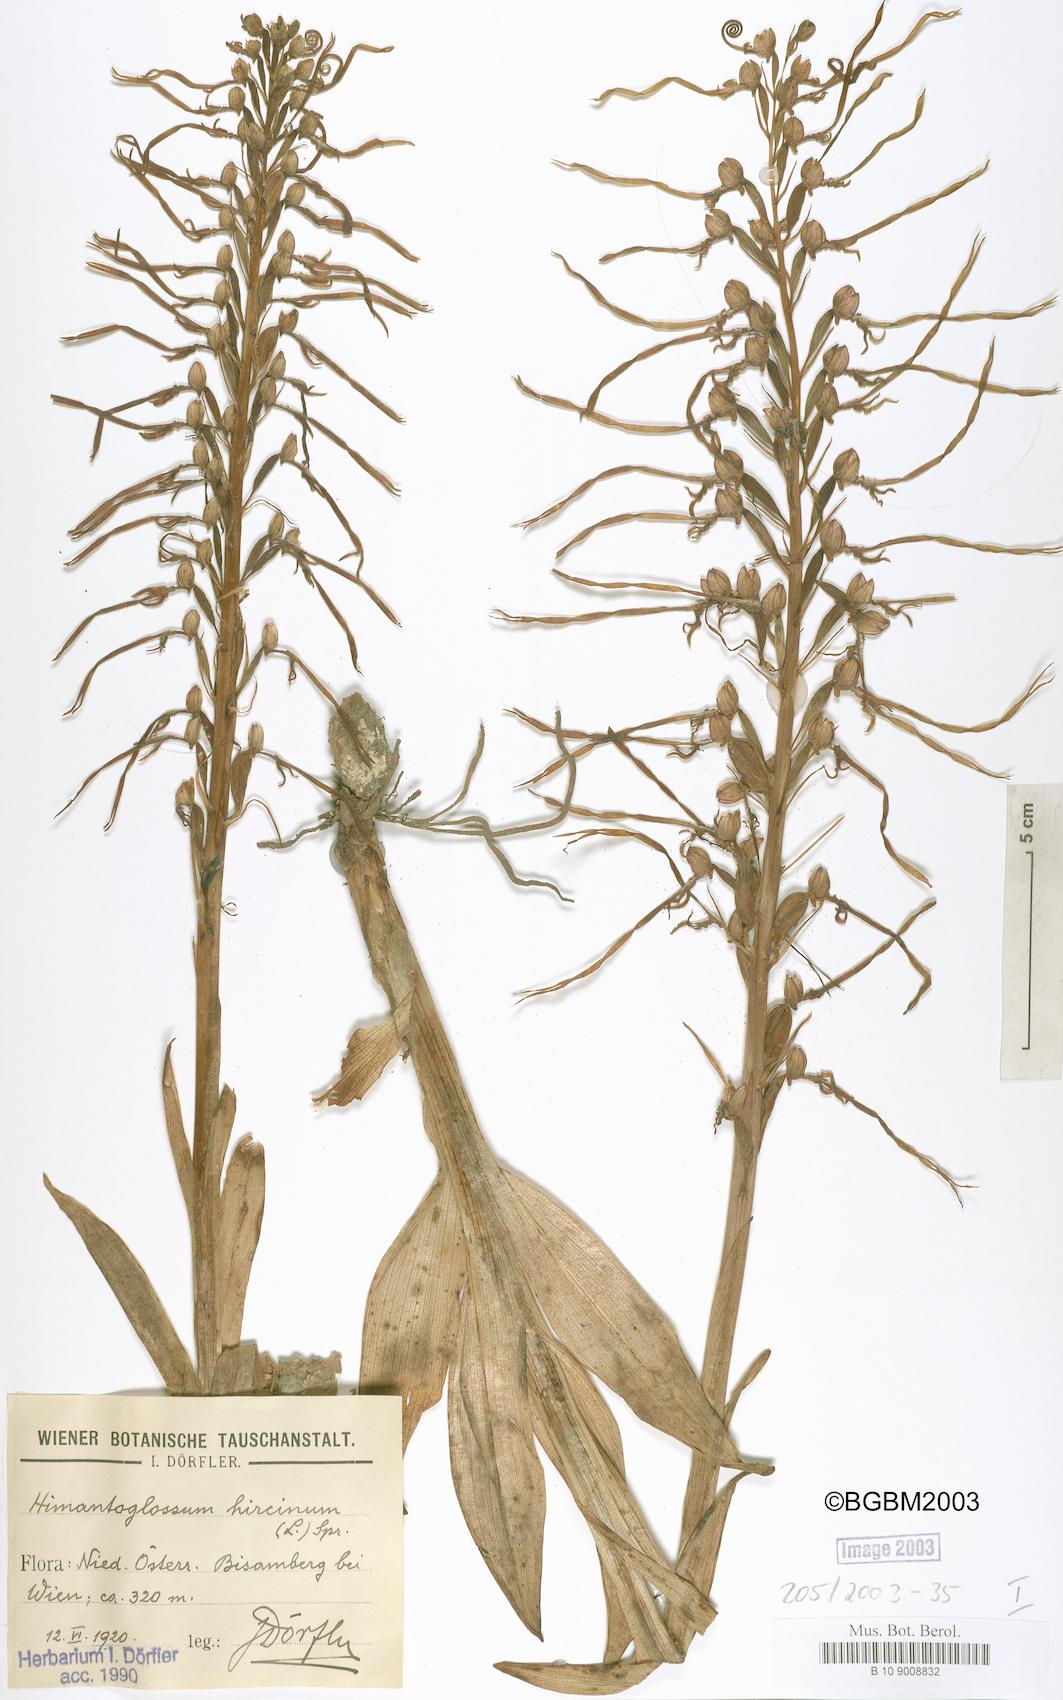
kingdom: Plantae
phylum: Tracheophyta
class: Liliopsida
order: Asparagales
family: Orchidaceae
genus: Himantoglossum
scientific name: Himantoglossum hircinum
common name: Lizard orchid
